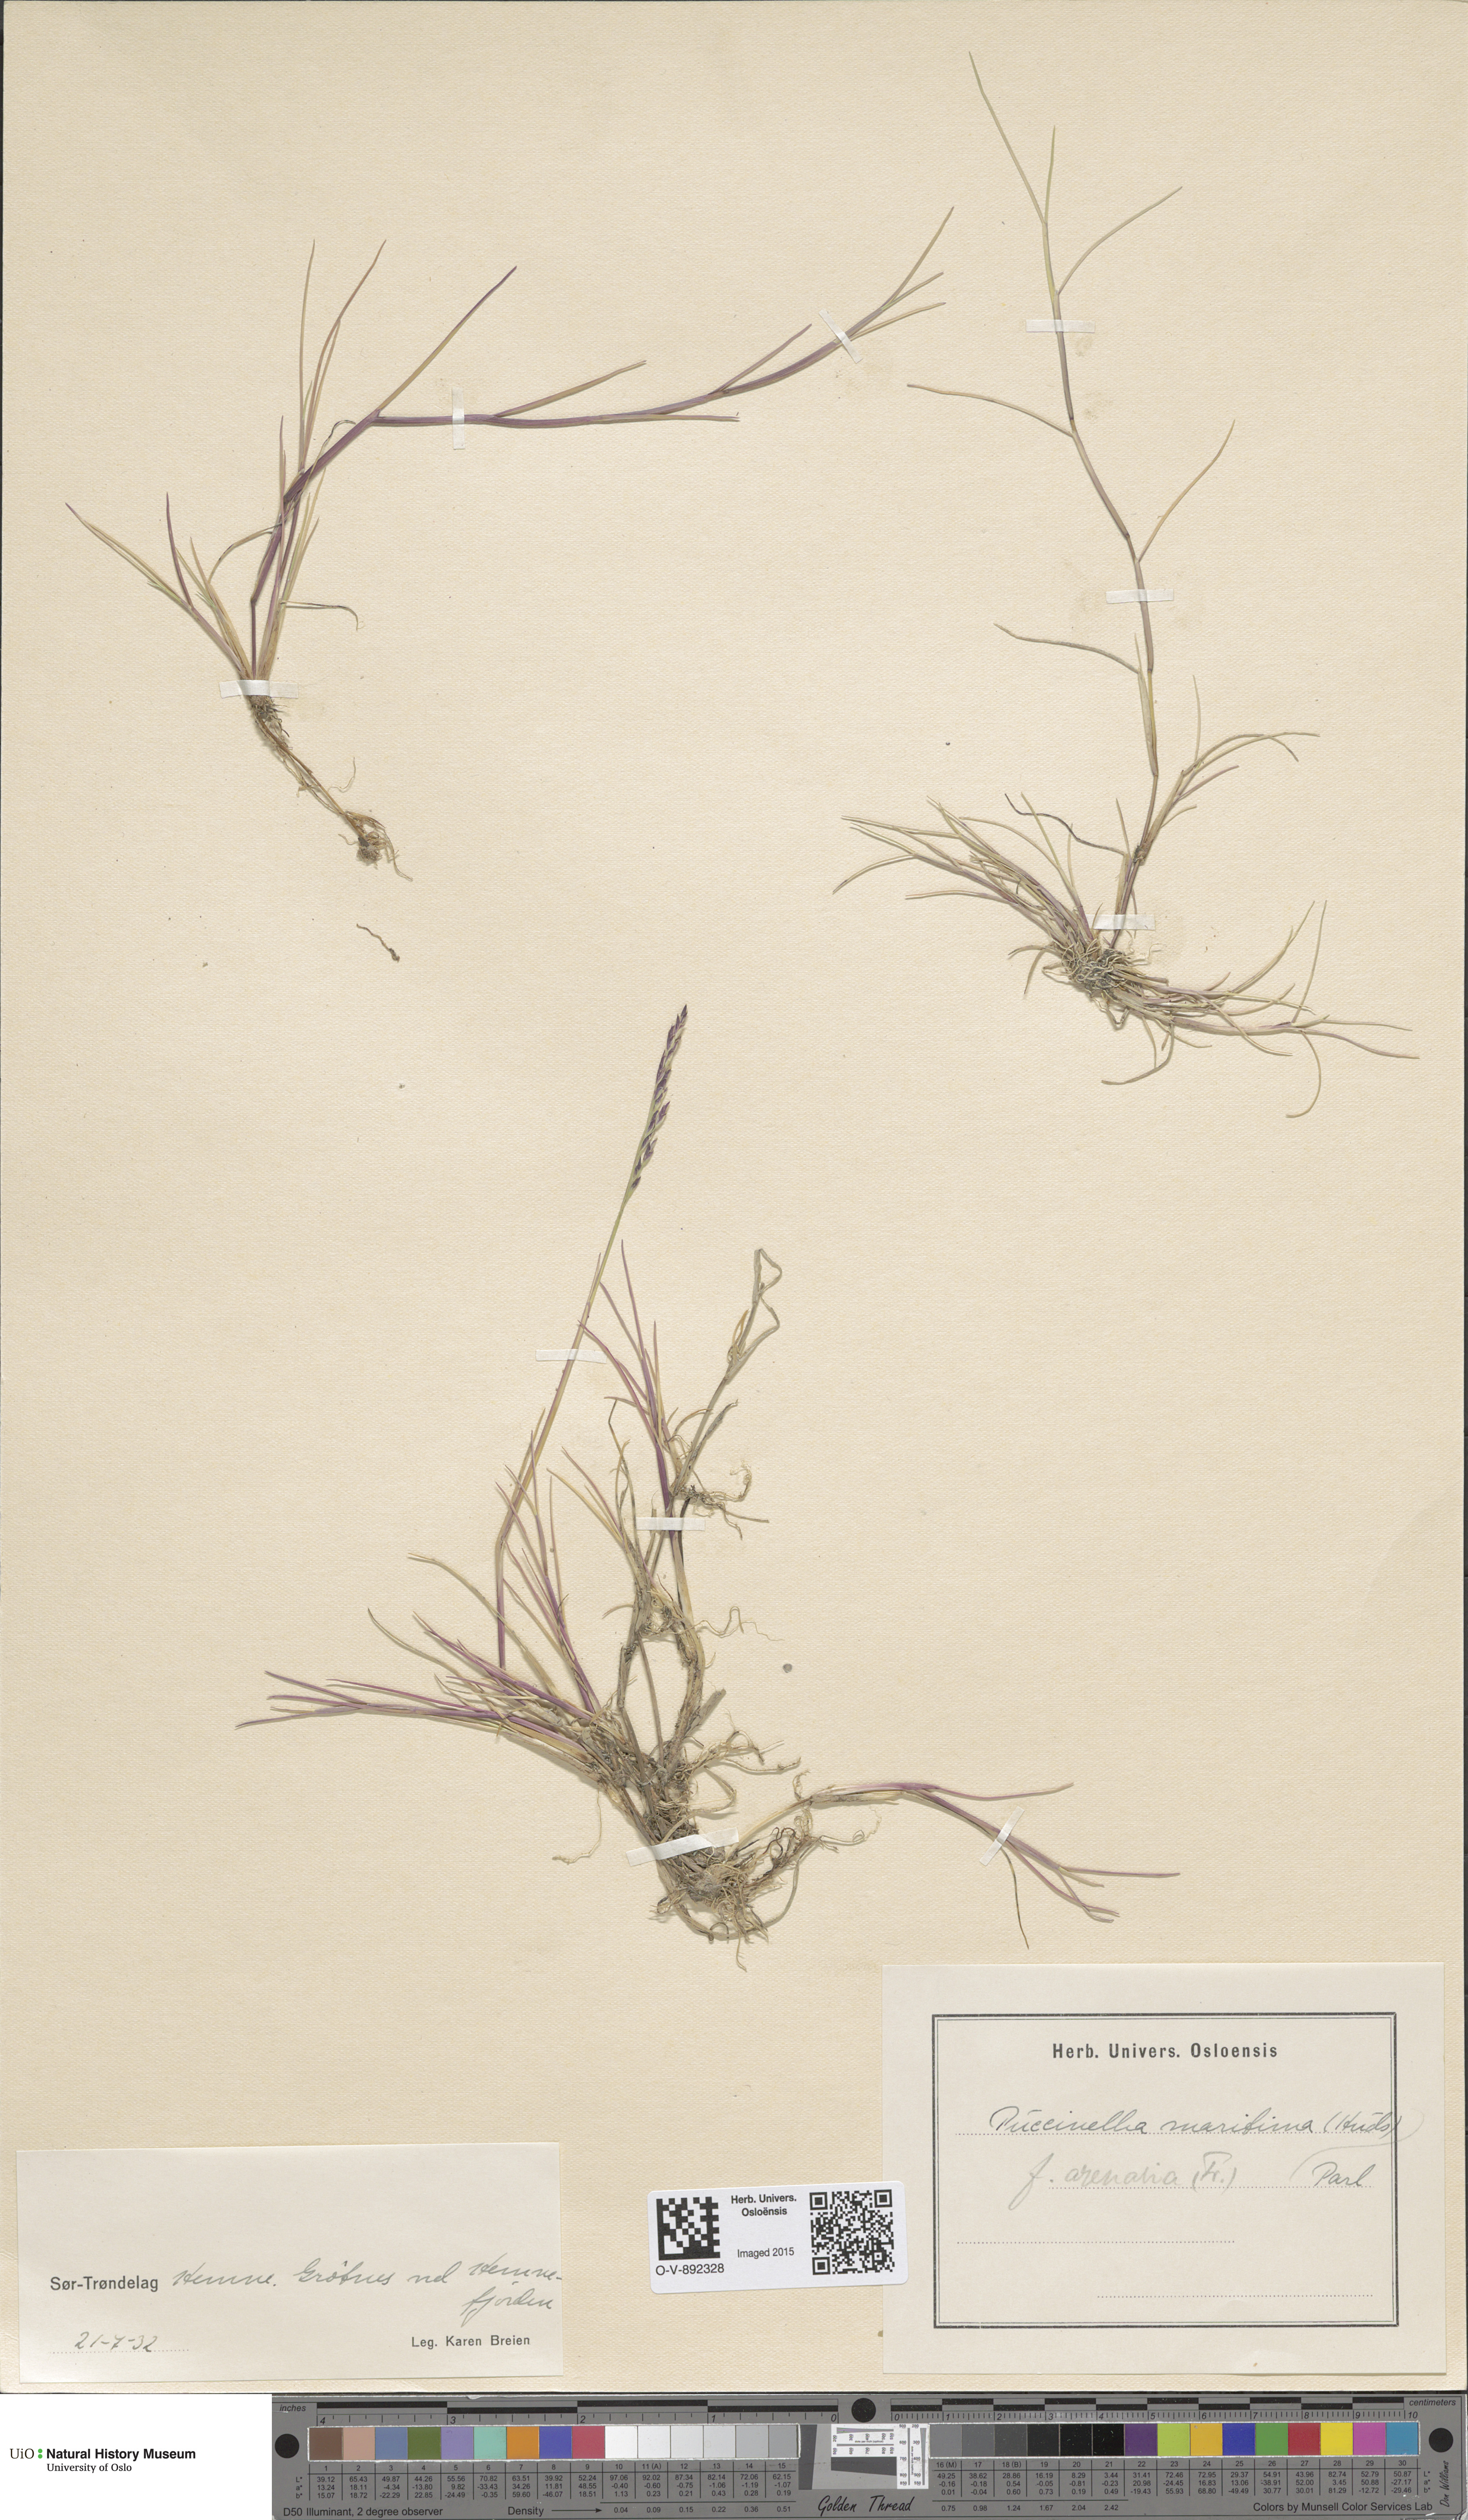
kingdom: Plantae
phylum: Tracheophyta
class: Liliopsida
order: Poales
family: Poaceae
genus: Puccinellia
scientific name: Puccinellia maritima
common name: Common saltmarsh grass
